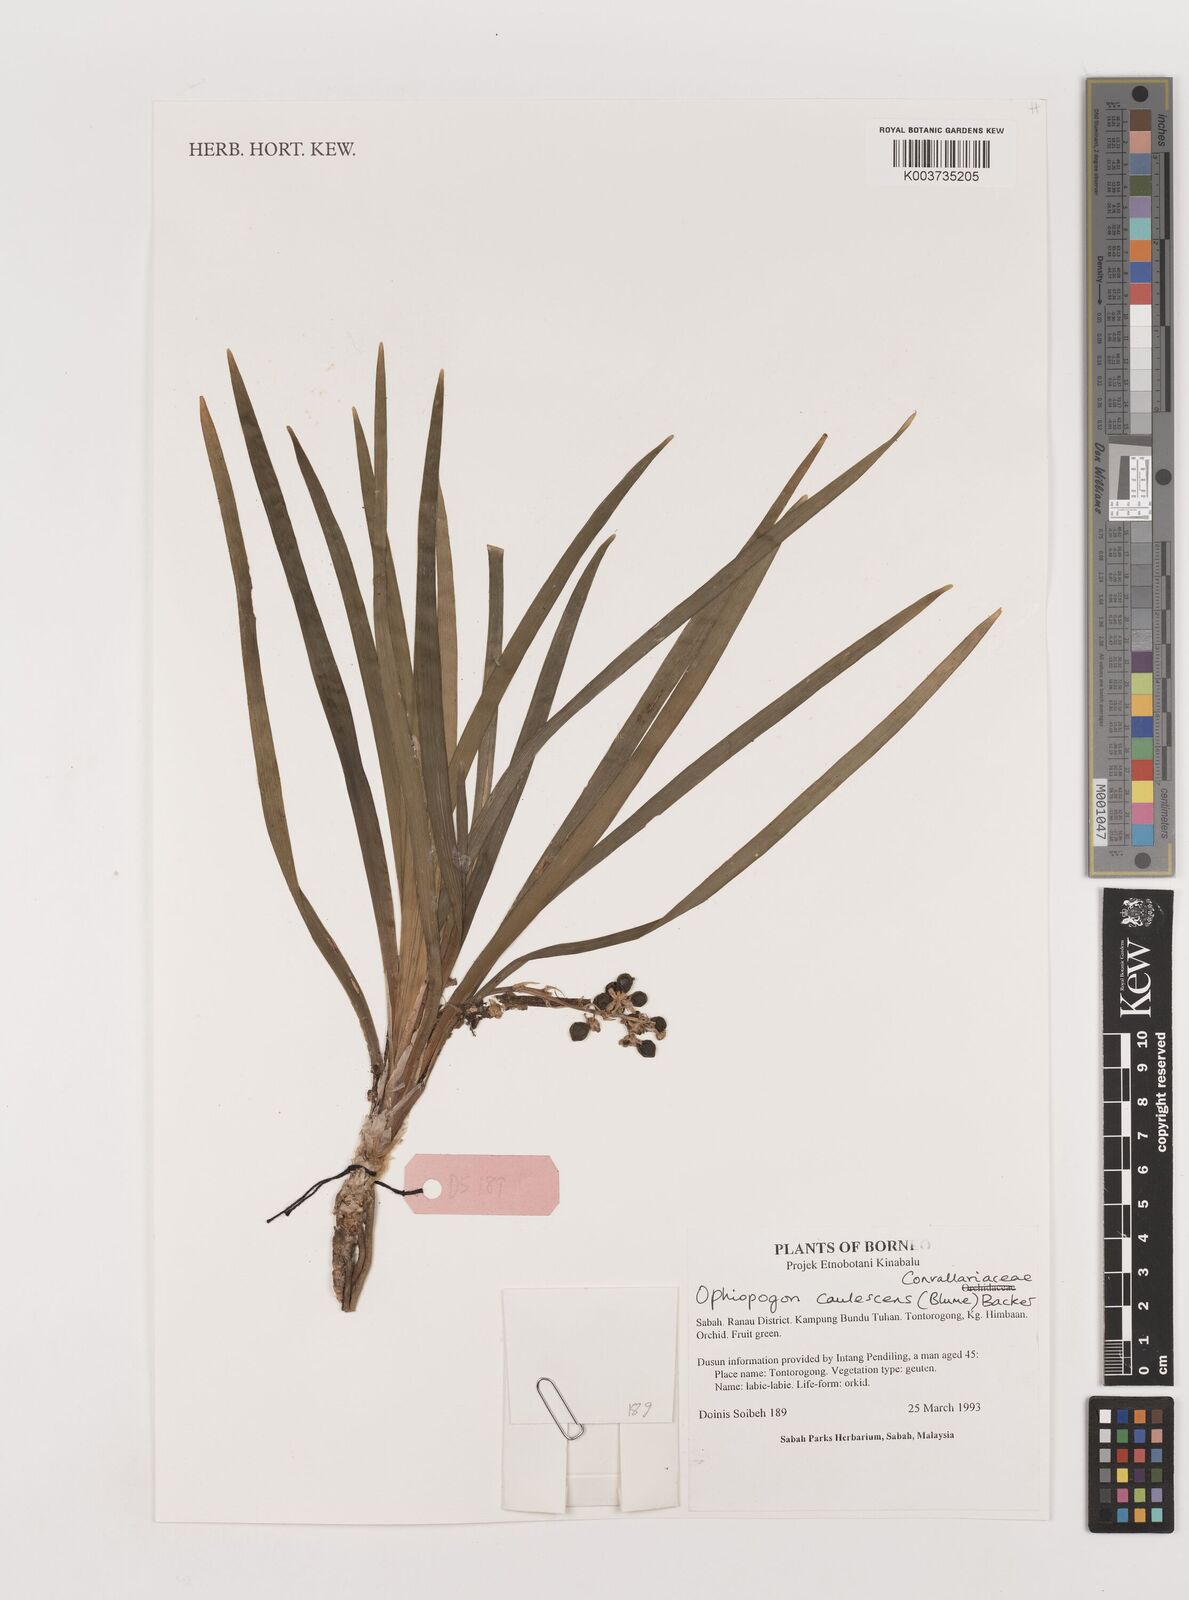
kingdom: Plantae
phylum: Tracheophyta
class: Liliopsida
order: Asparagales
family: Asparagaceae
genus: Ophiopogon
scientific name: Ophiopogon caulescens
